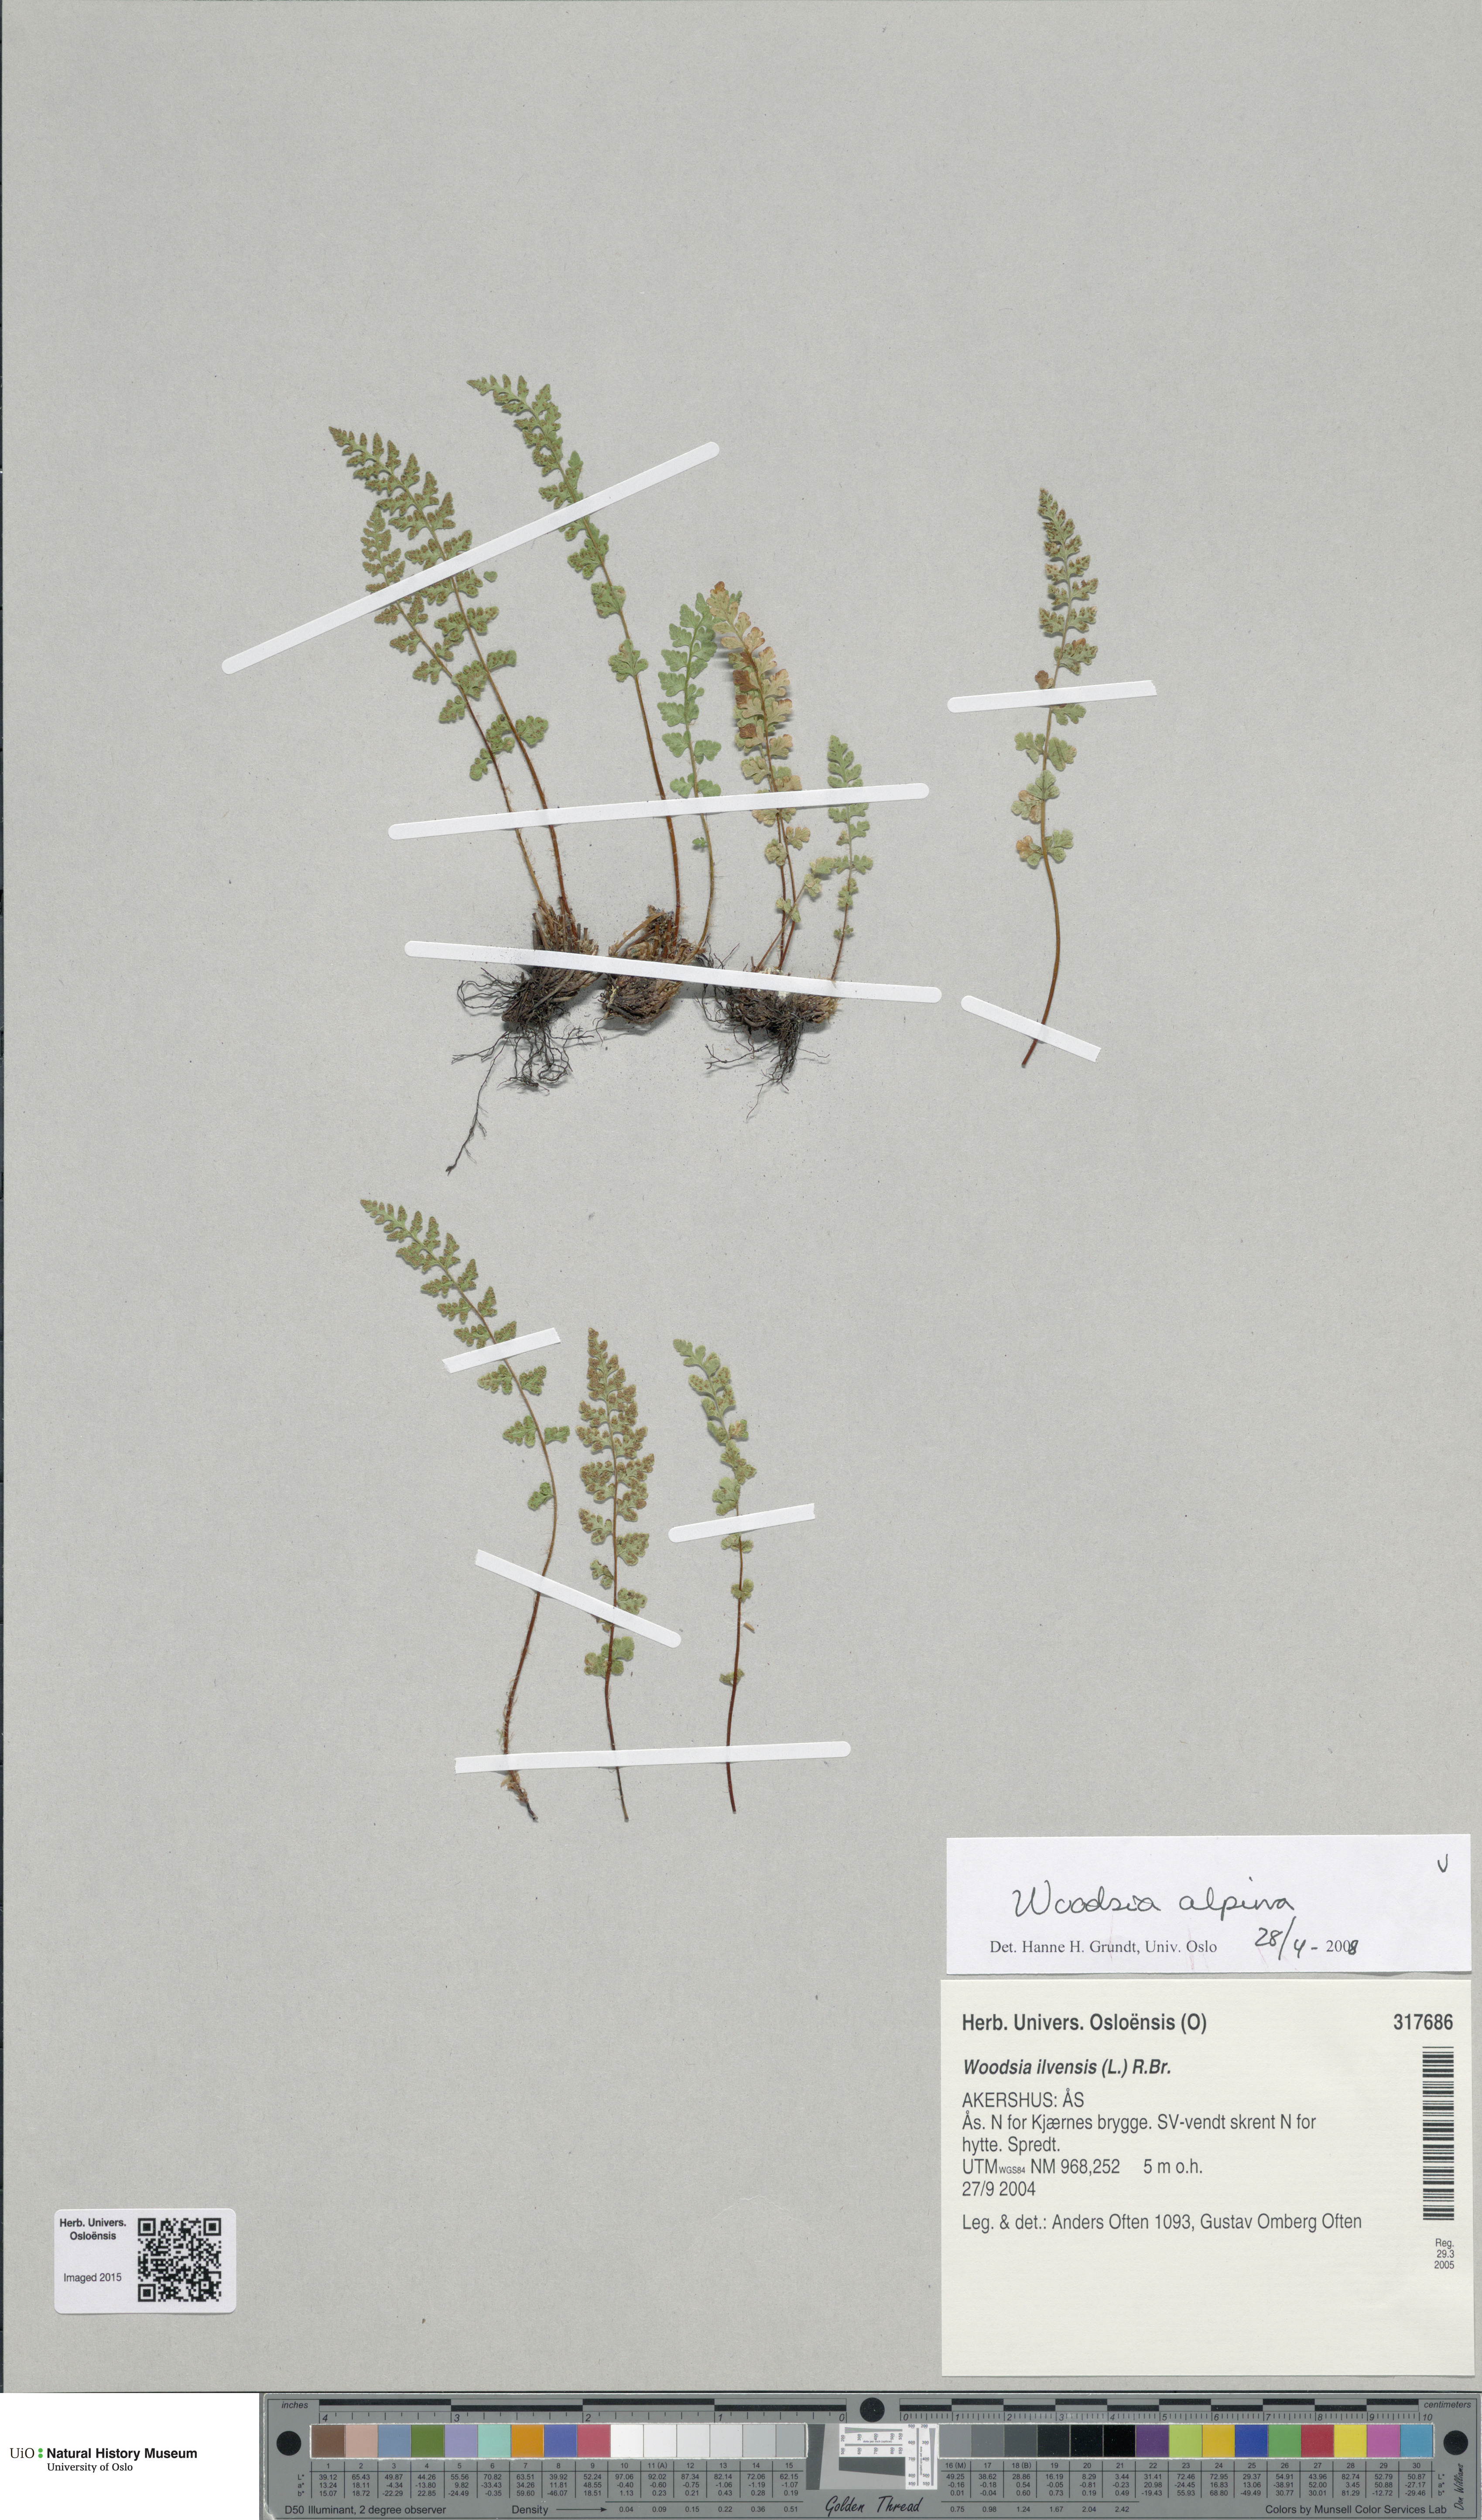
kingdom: Plantae
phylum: Tracheophyta
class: Polypodiopsida
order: Polypodiales
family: Woodsiaceae
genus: Woodsia
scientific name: Woodsia alpina
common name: Alpine woodsia
